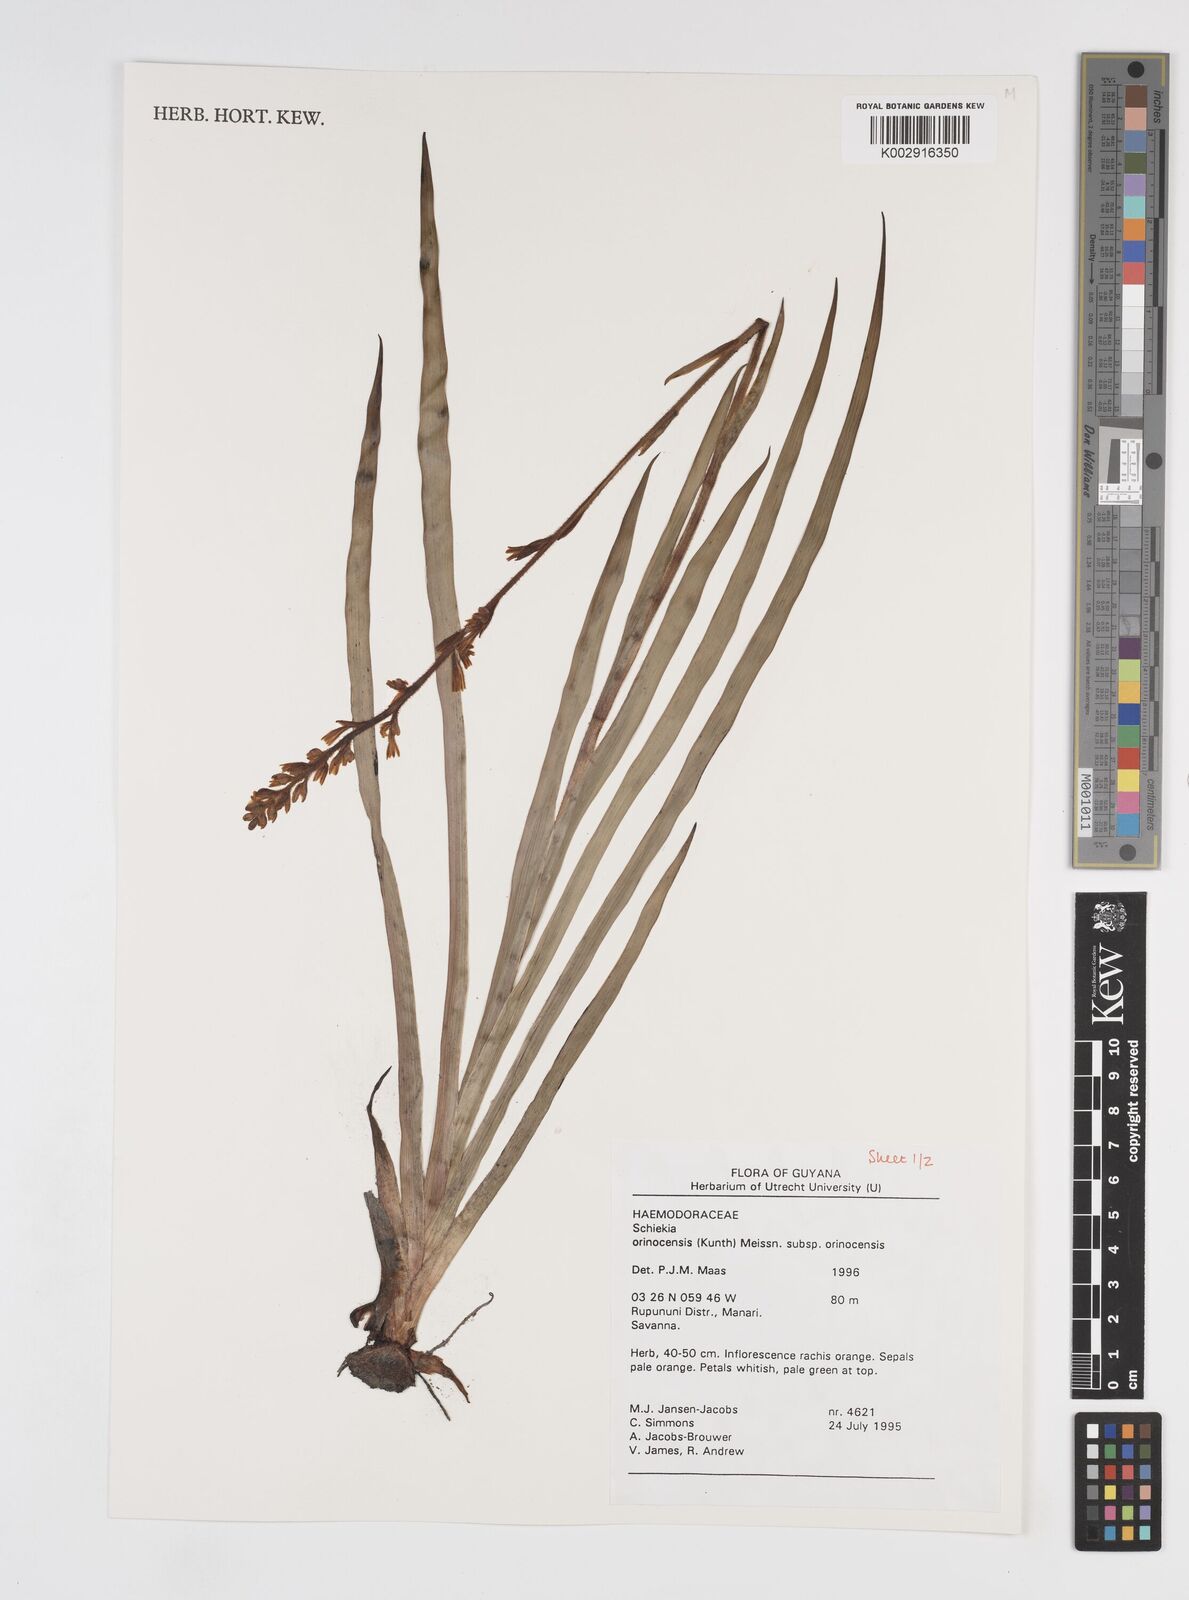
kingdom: Plantae
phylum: Tracheophyta
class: Liliopsida
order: Commelinales
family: Haemodoraceae
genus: Schiekia
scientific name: Schiekia orinocensis
